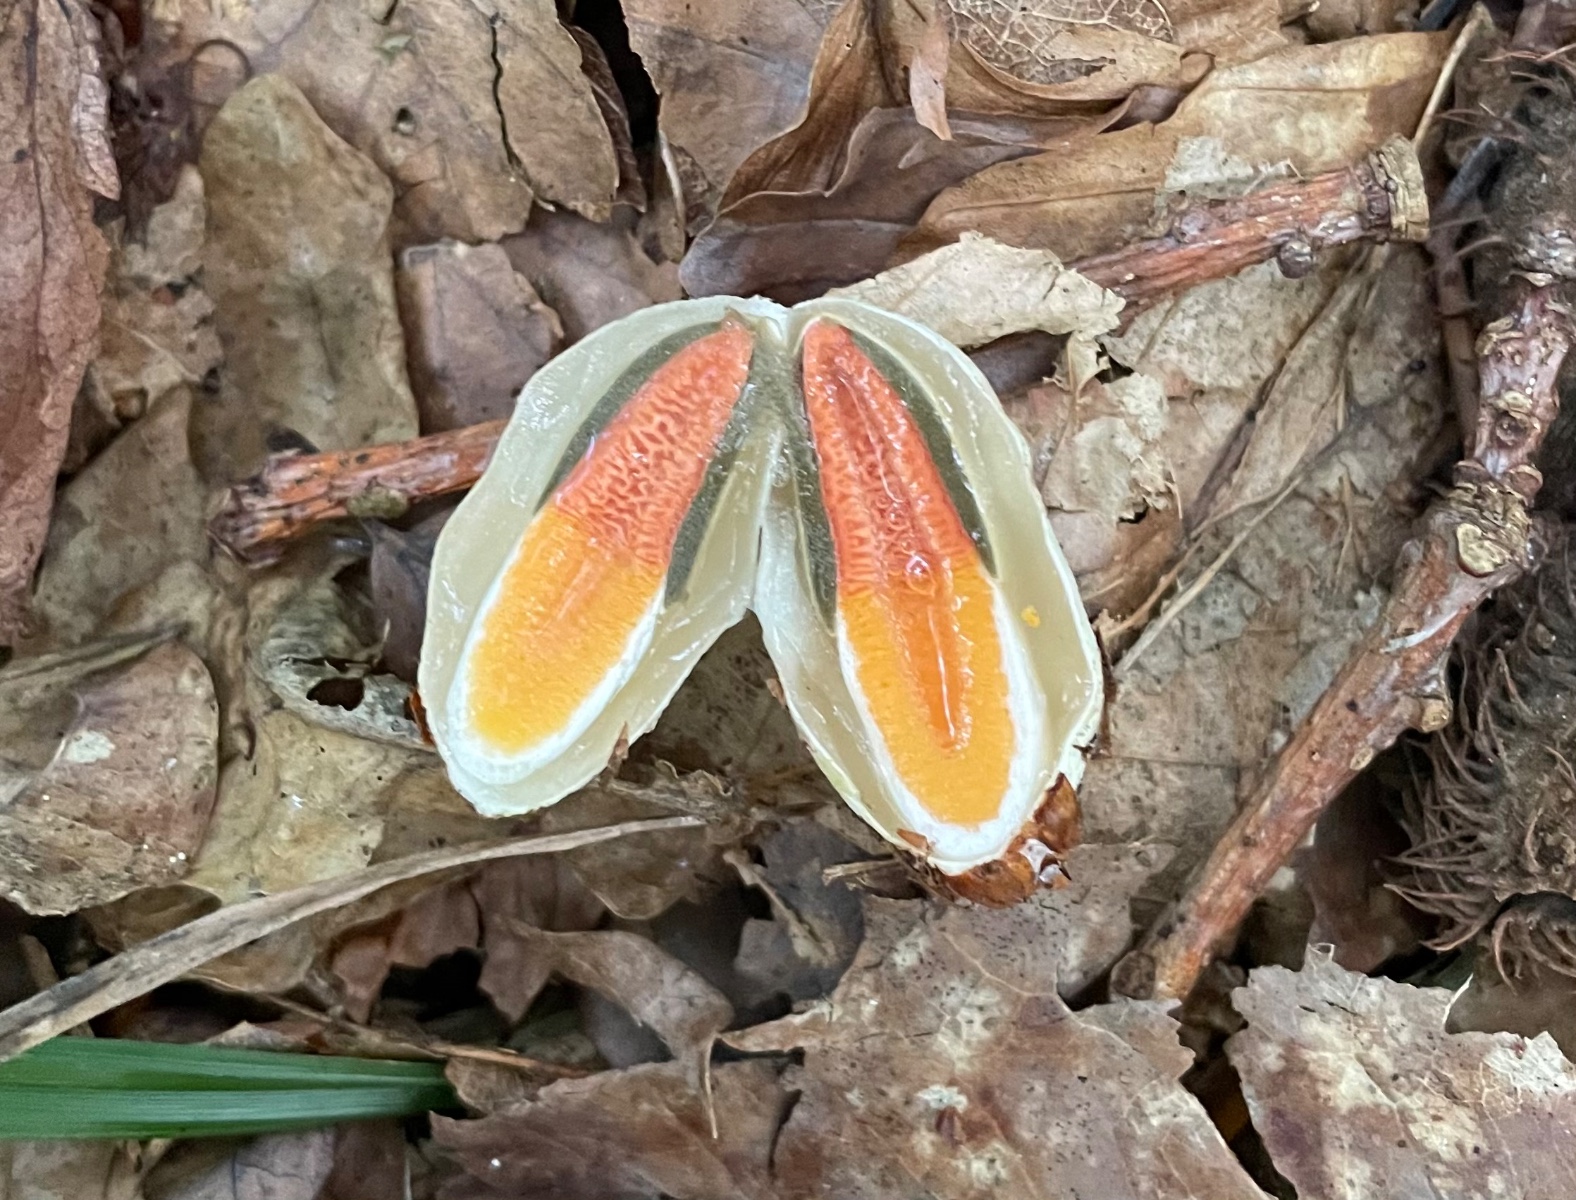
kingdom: Fungi
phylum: Basidiomycota
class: Agaricomycetes
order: Phallales
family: Phallaceae
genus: Mutinus
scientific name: Mutinus caninus
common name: hunde-stinksvamp
